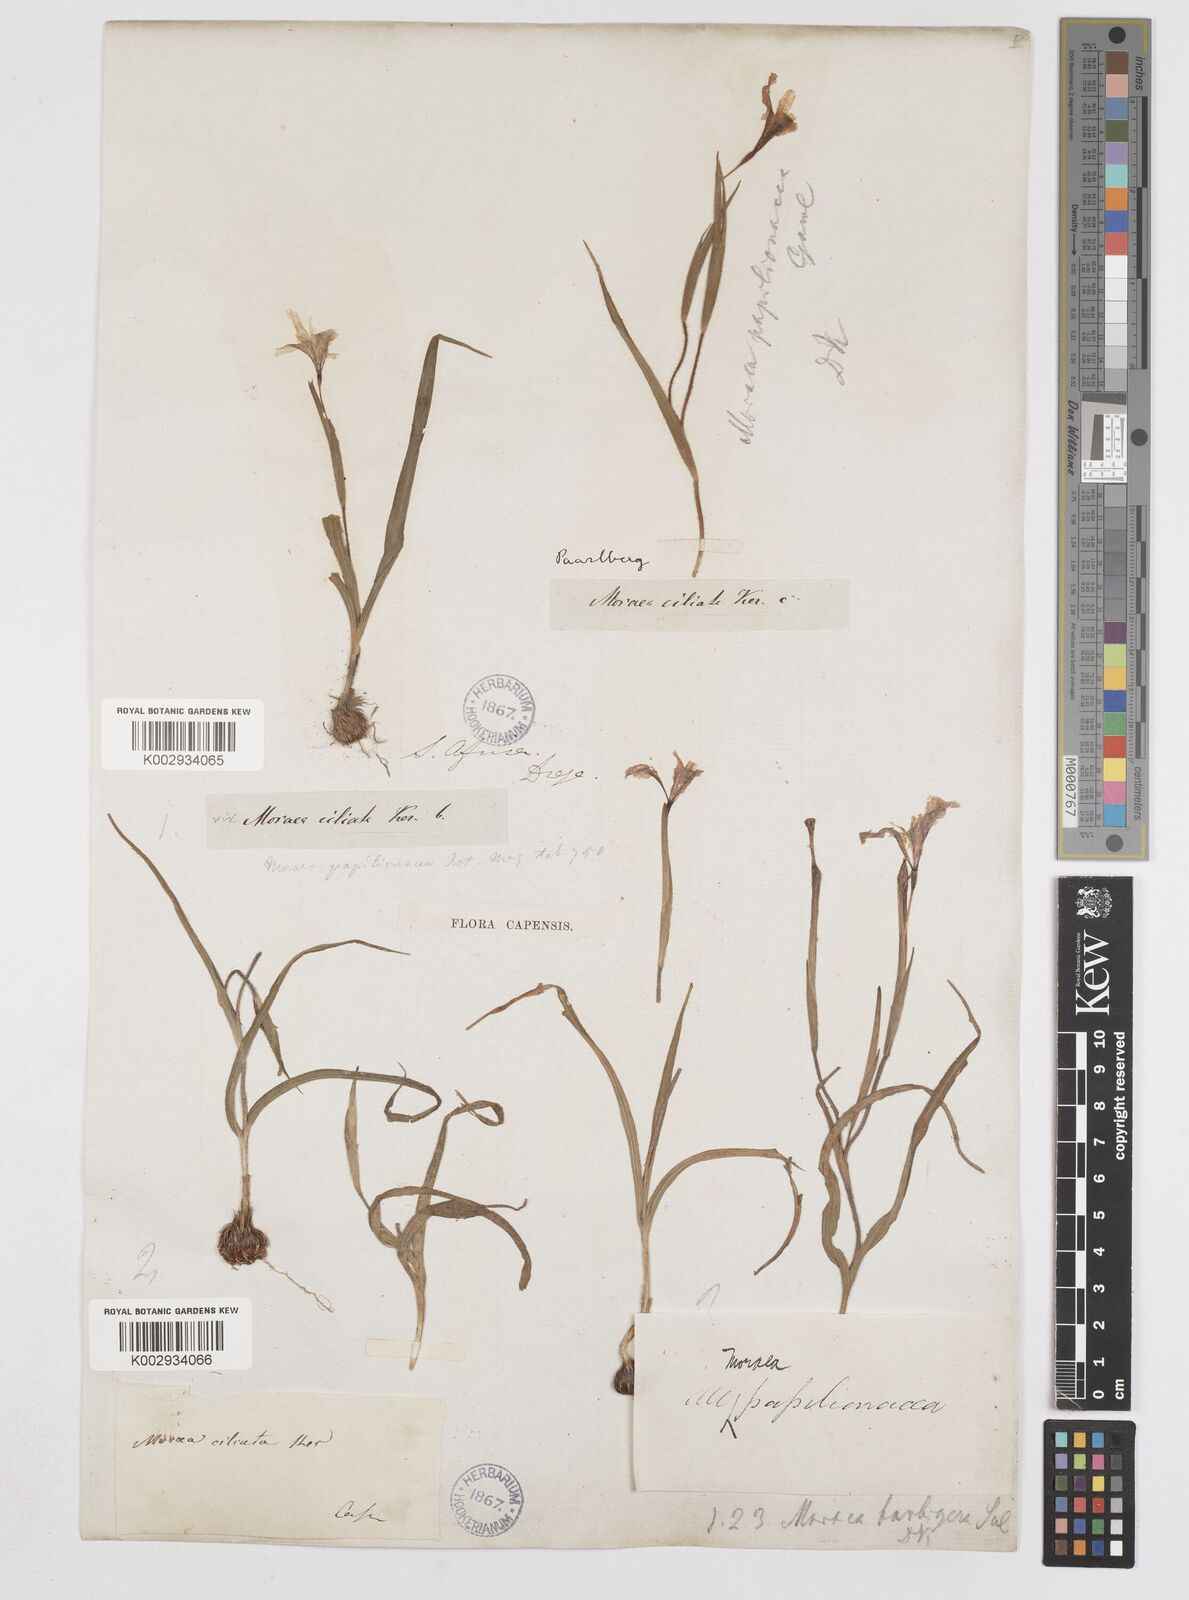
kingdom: Plantae
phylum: Tracheophyta
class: Liliopsida
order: Asparagales
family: Iridaceae
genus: Moraea
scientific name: Moraea papilionacea
